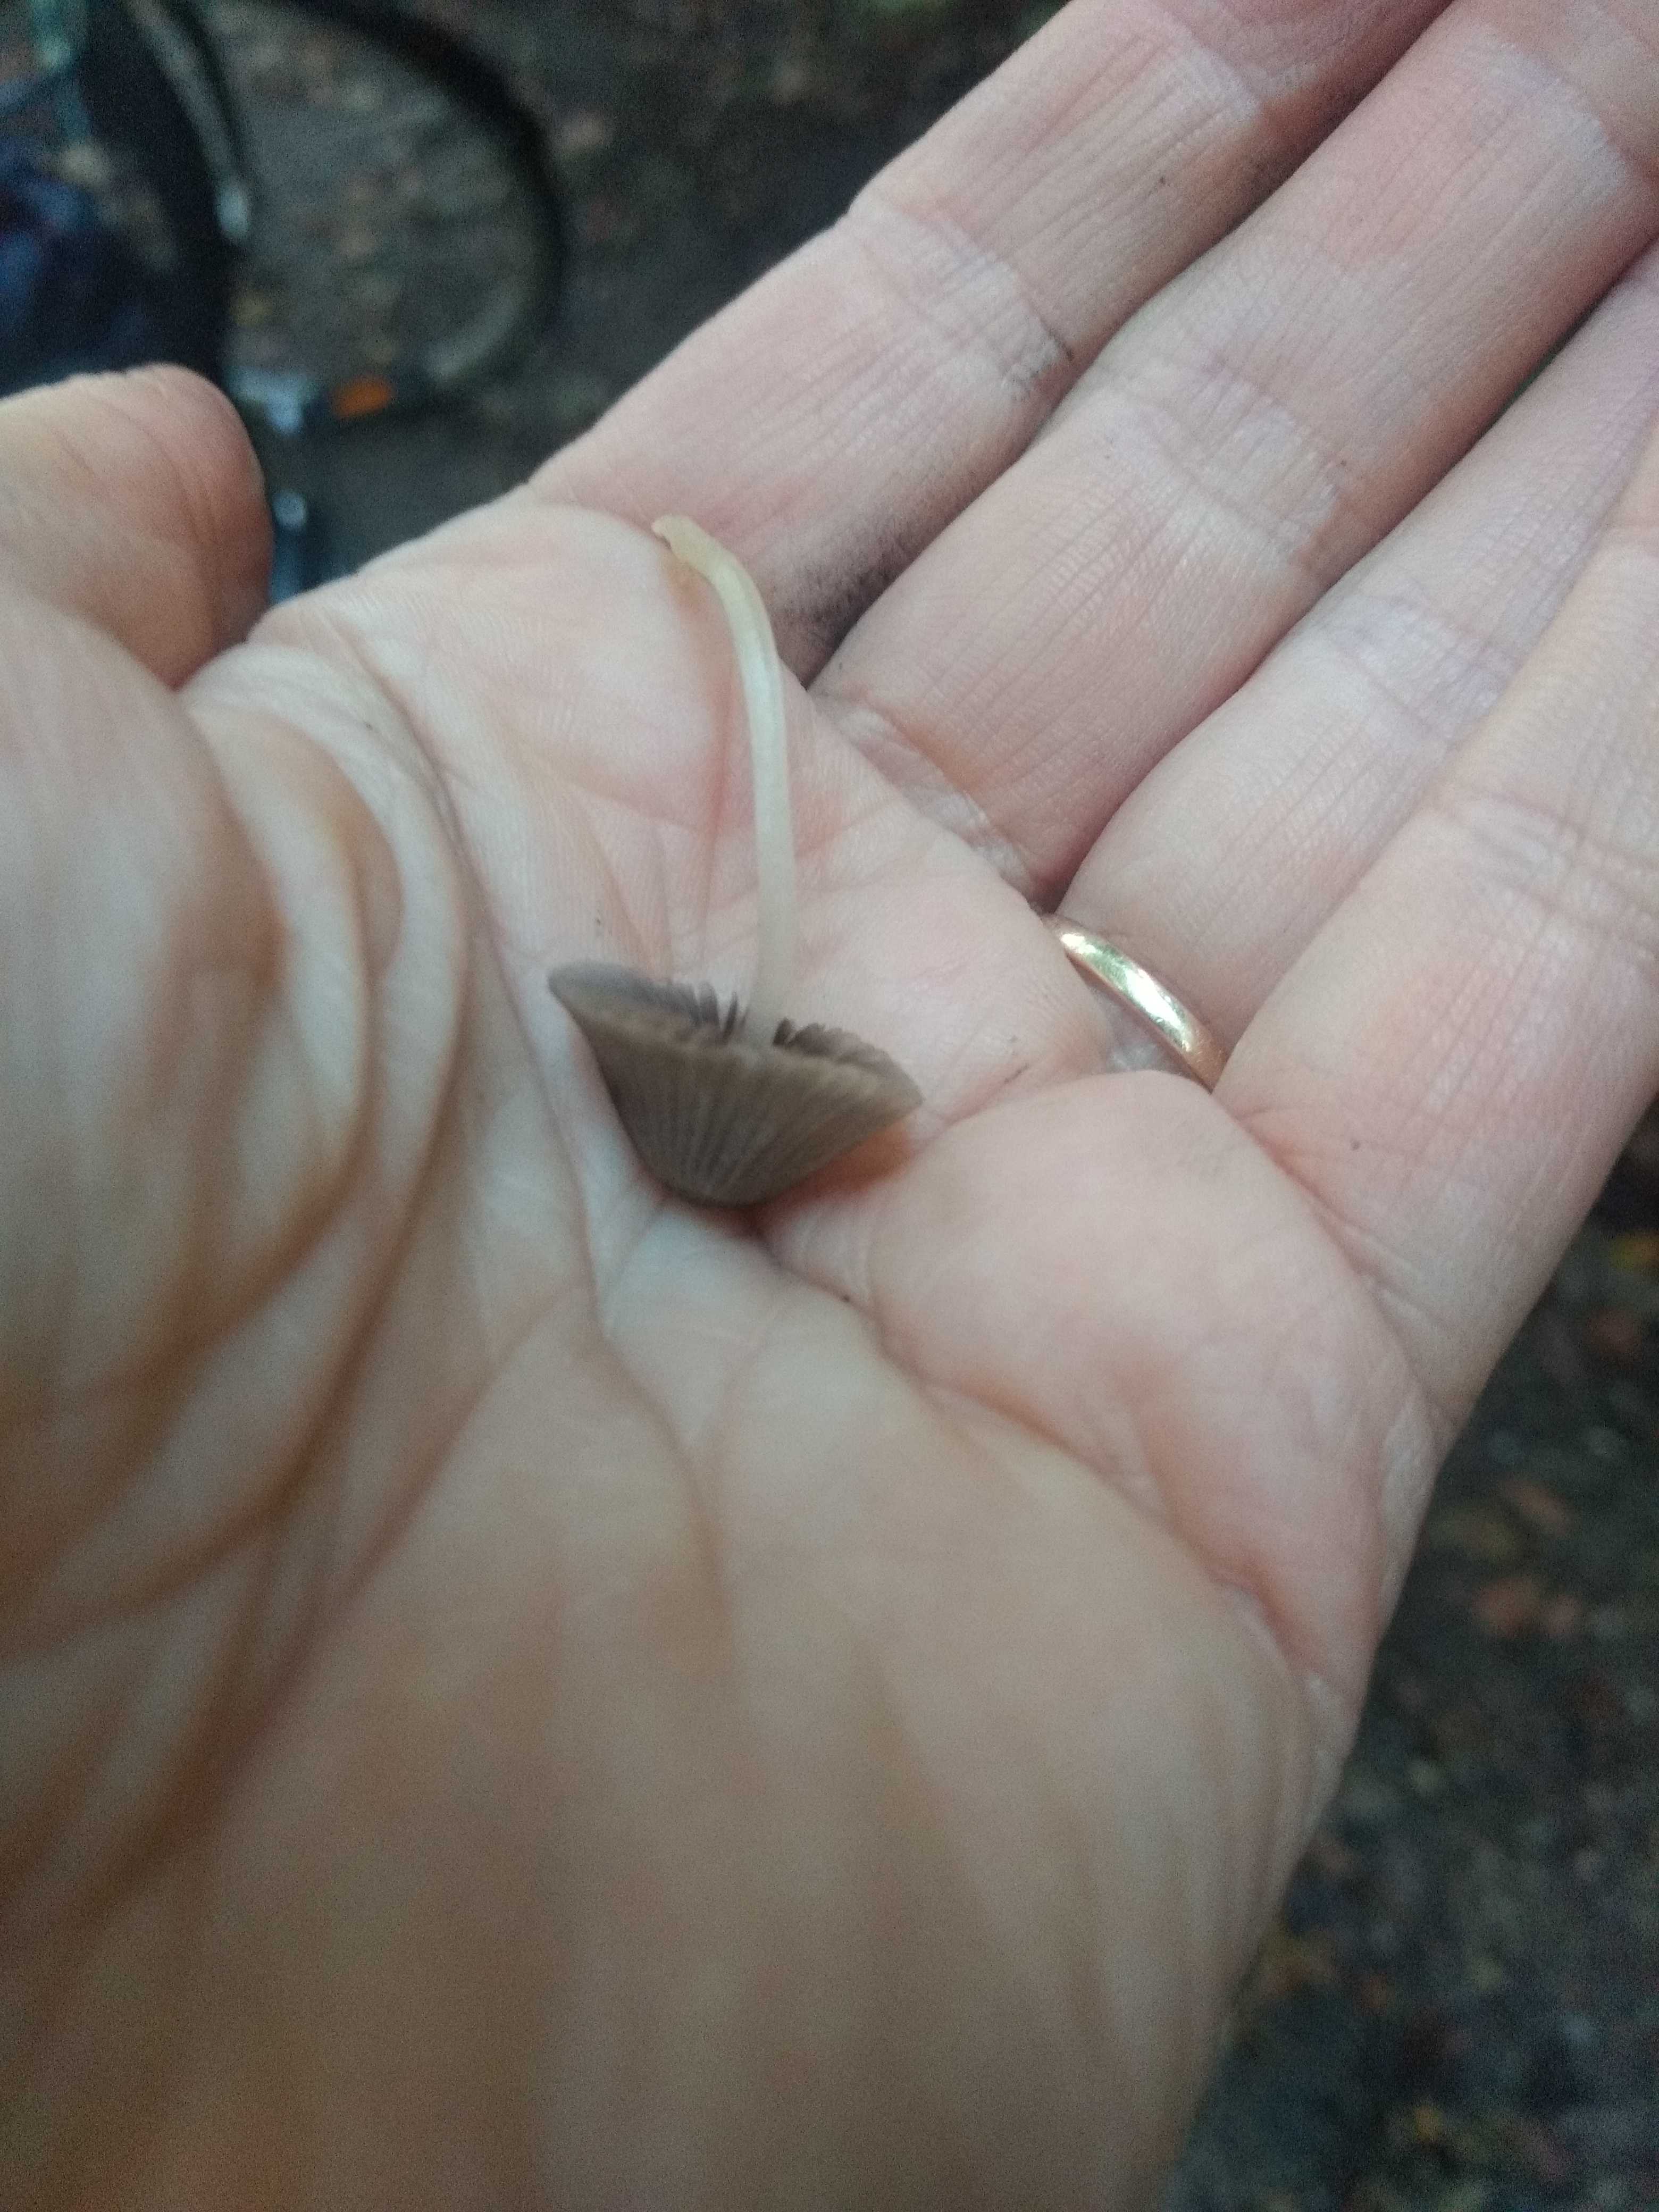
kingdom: Fungi
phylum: Basidiomycota
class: Agaricomycetes
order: Agaricales
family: Psathyrellaceae
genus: Coprinellus
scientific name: Coprinellus disseminatus
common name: bredsået blækhat
